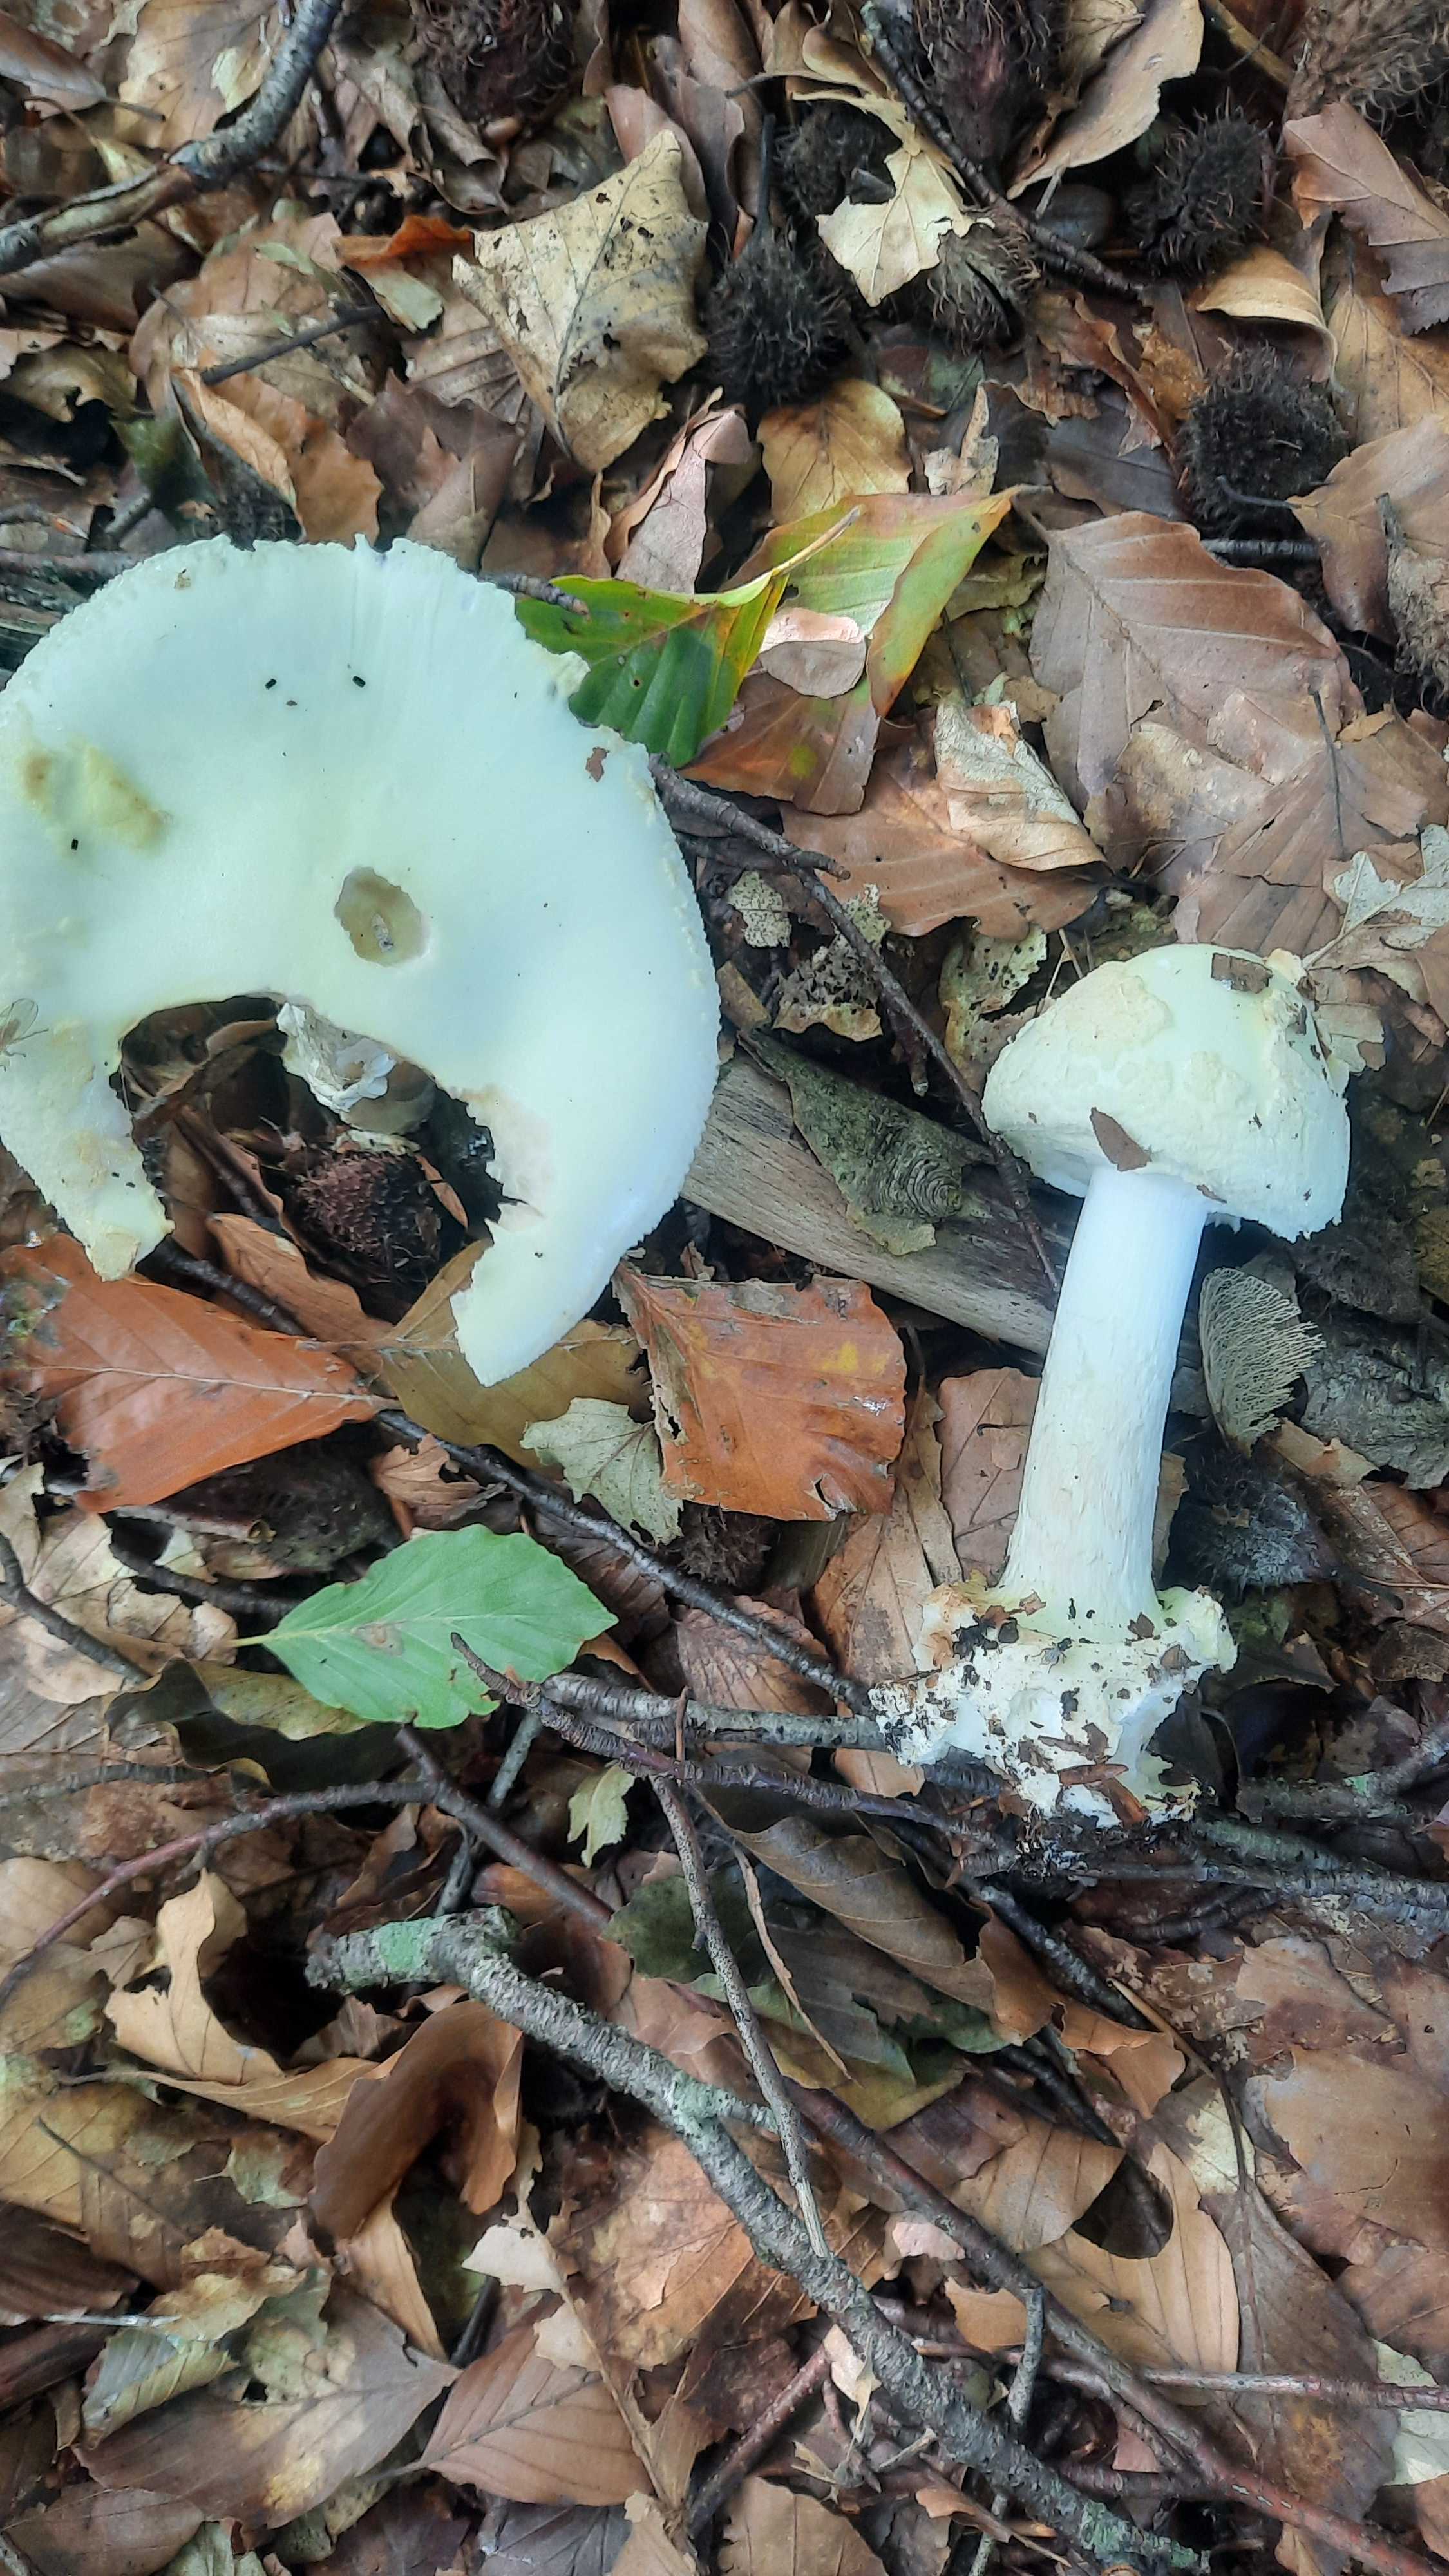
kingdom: Fungi
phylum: Basidiomycota
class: Agaricomycetes
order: Agaricales
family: Amanitaceae
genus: Amanita
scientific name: Amanita citrina
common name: kugleknoldet fluesvamp
